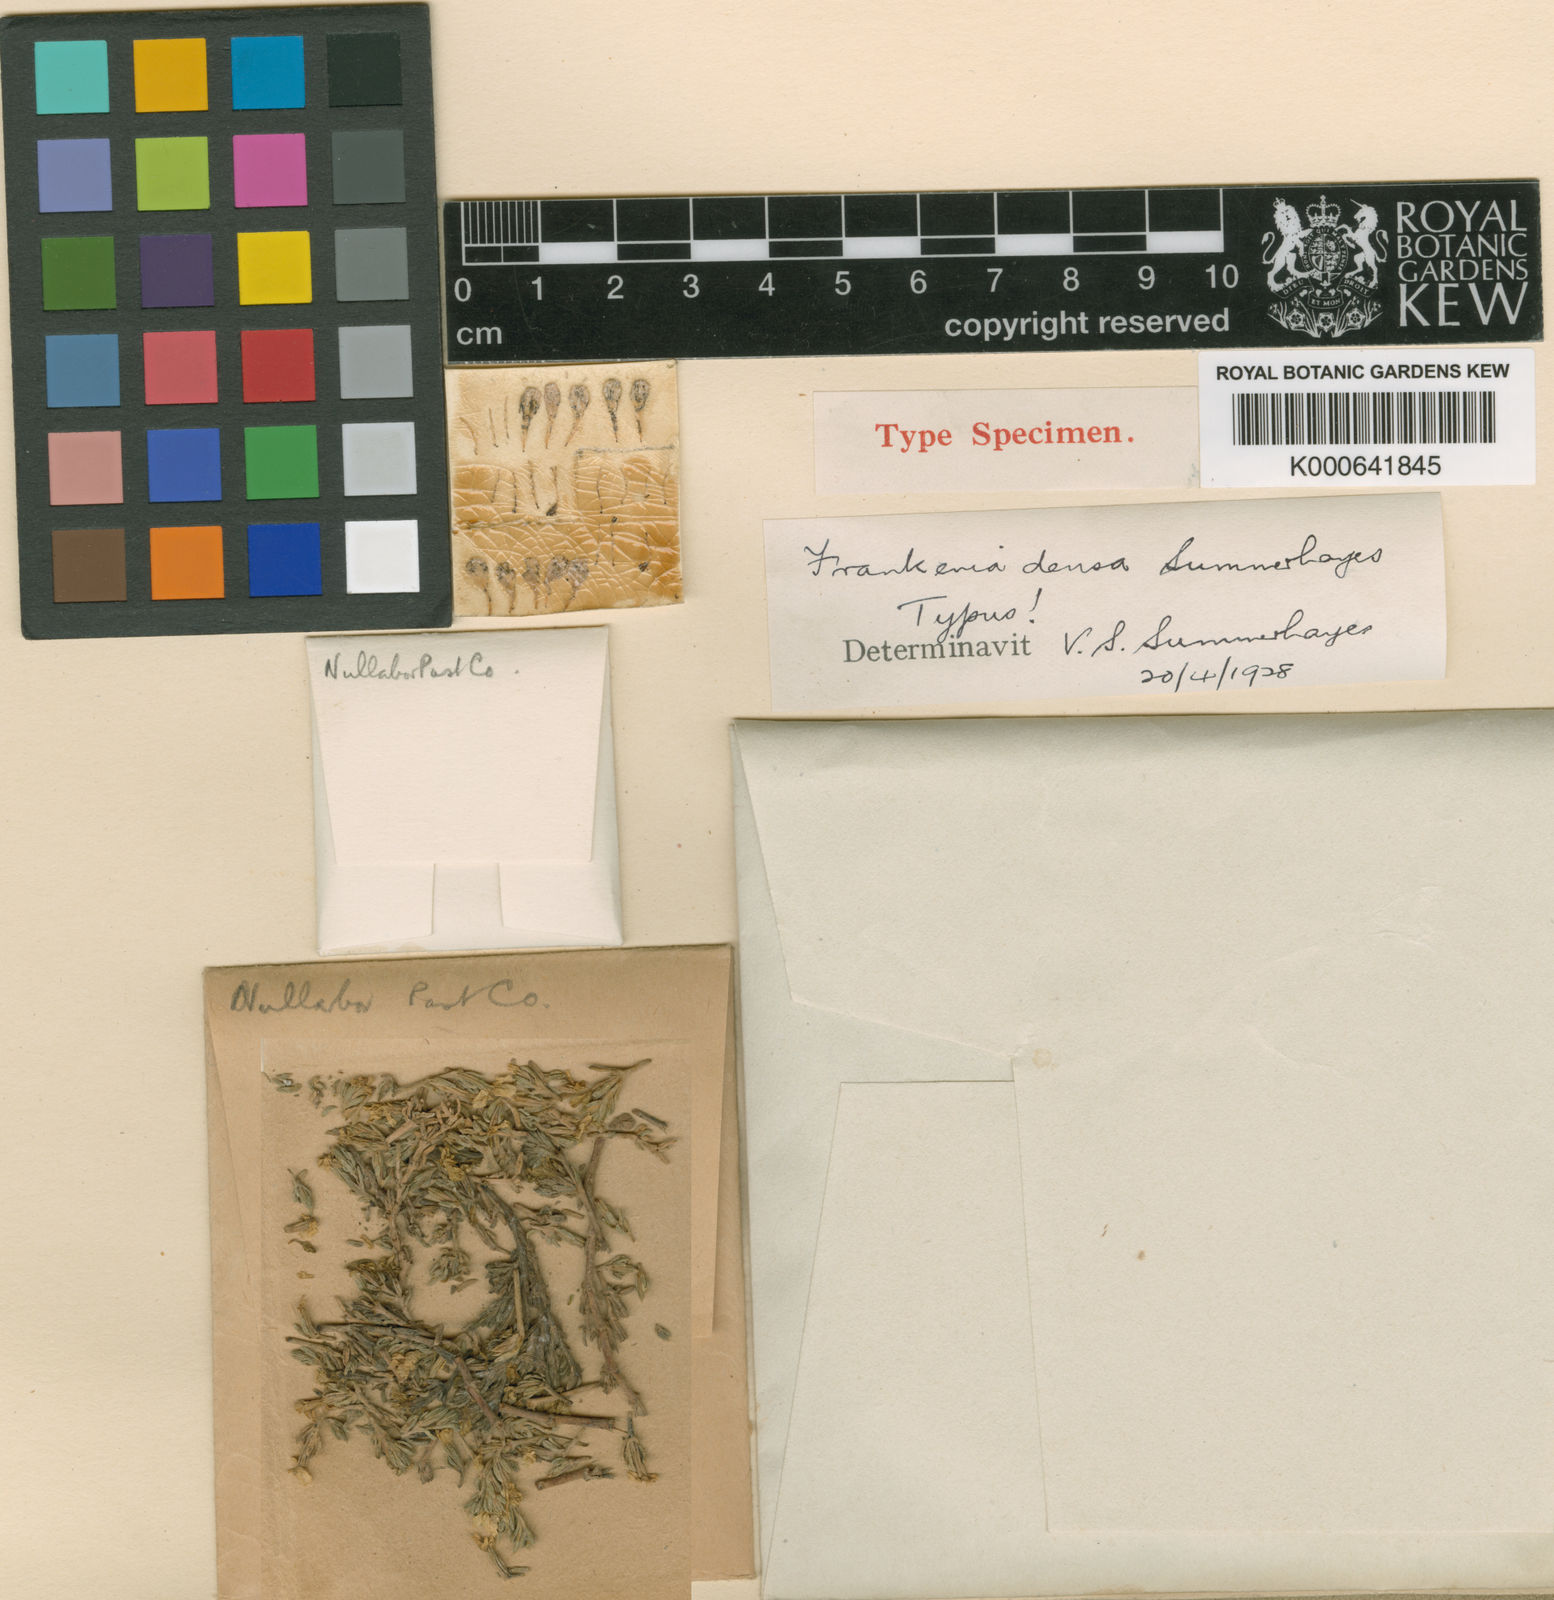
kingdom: Plantae
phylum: Tracheophyta
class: Magnoliopsida
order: Caryophyllales
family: Frankeniaceae
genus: Frankenia
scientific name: Frankenia densa
